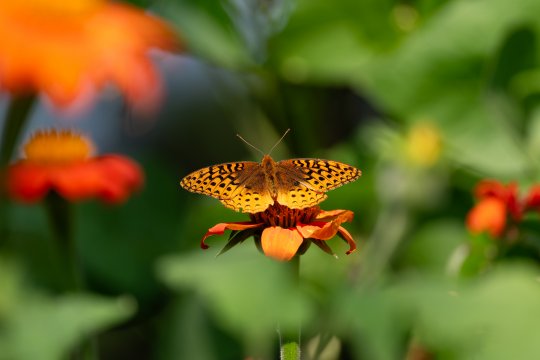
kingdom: Animalia
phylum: Arthropoda
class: Insecta
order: Lepidoptera
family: Nymphalidae
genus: Speyeria
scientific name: Speyeria cybele
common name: Great Spangled Fritillary
